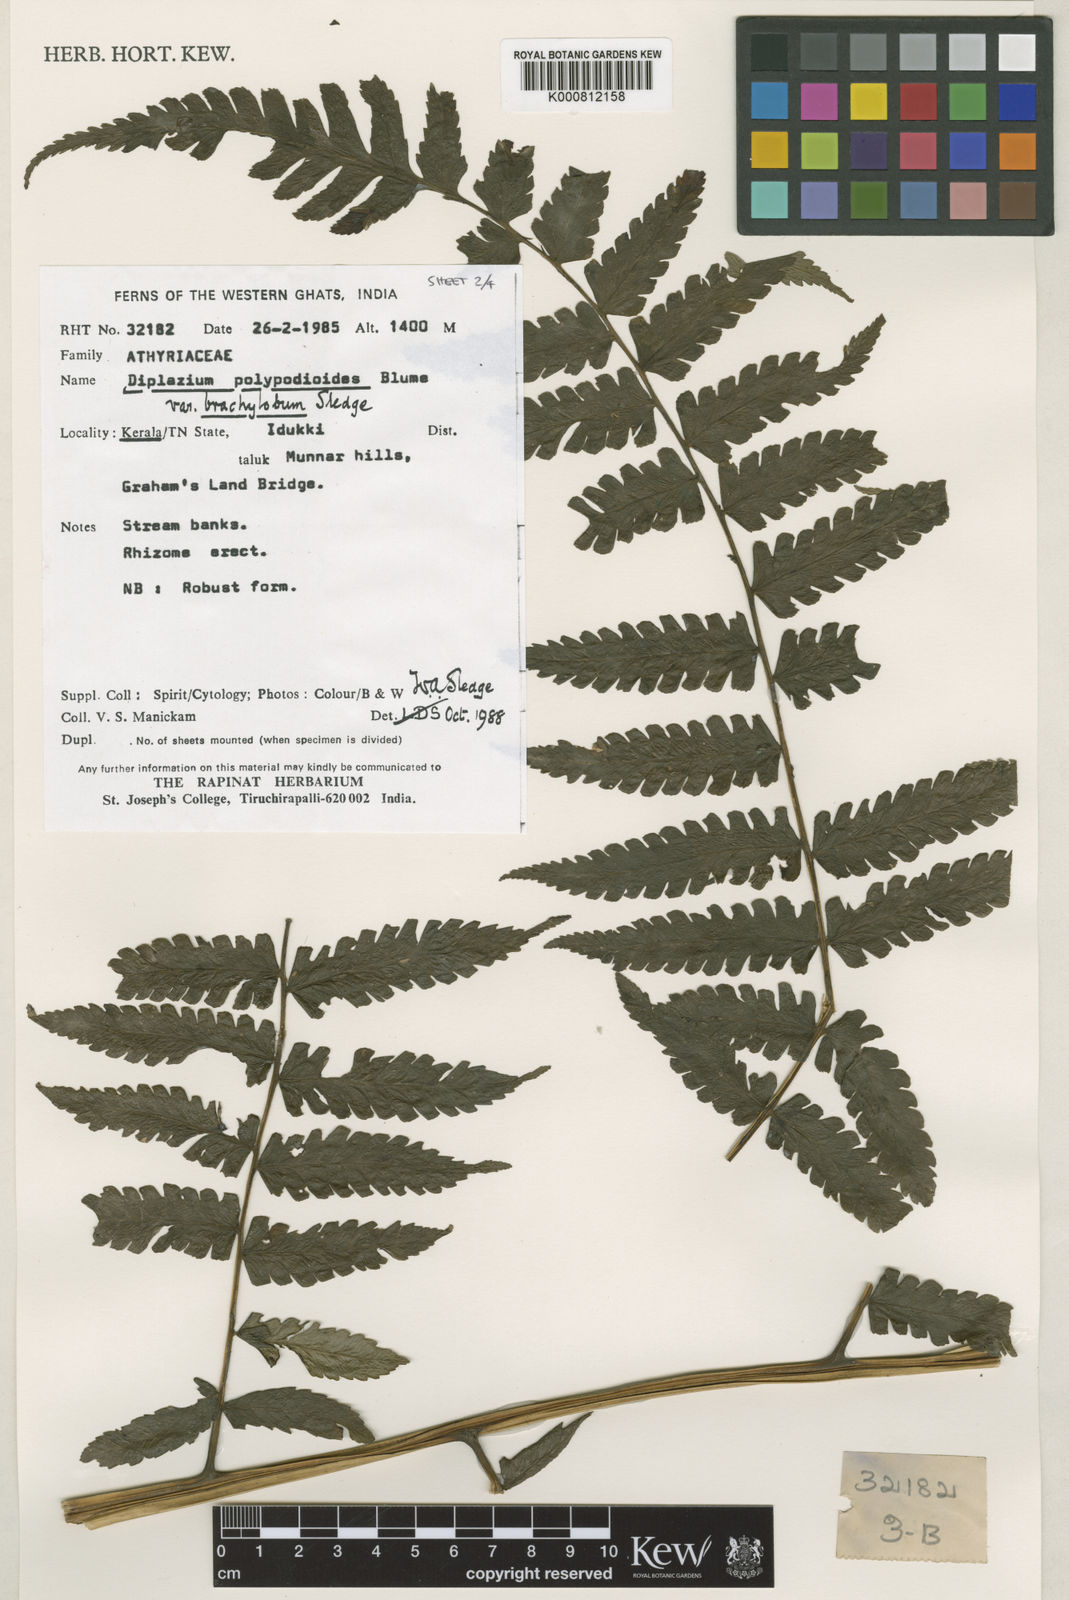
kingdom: Plantae
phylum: Tracheophyta
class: Polypodiopsida
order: Polypodiales
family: Athyriaceae
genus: Diplazium
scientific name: Diplazium polypodioides
